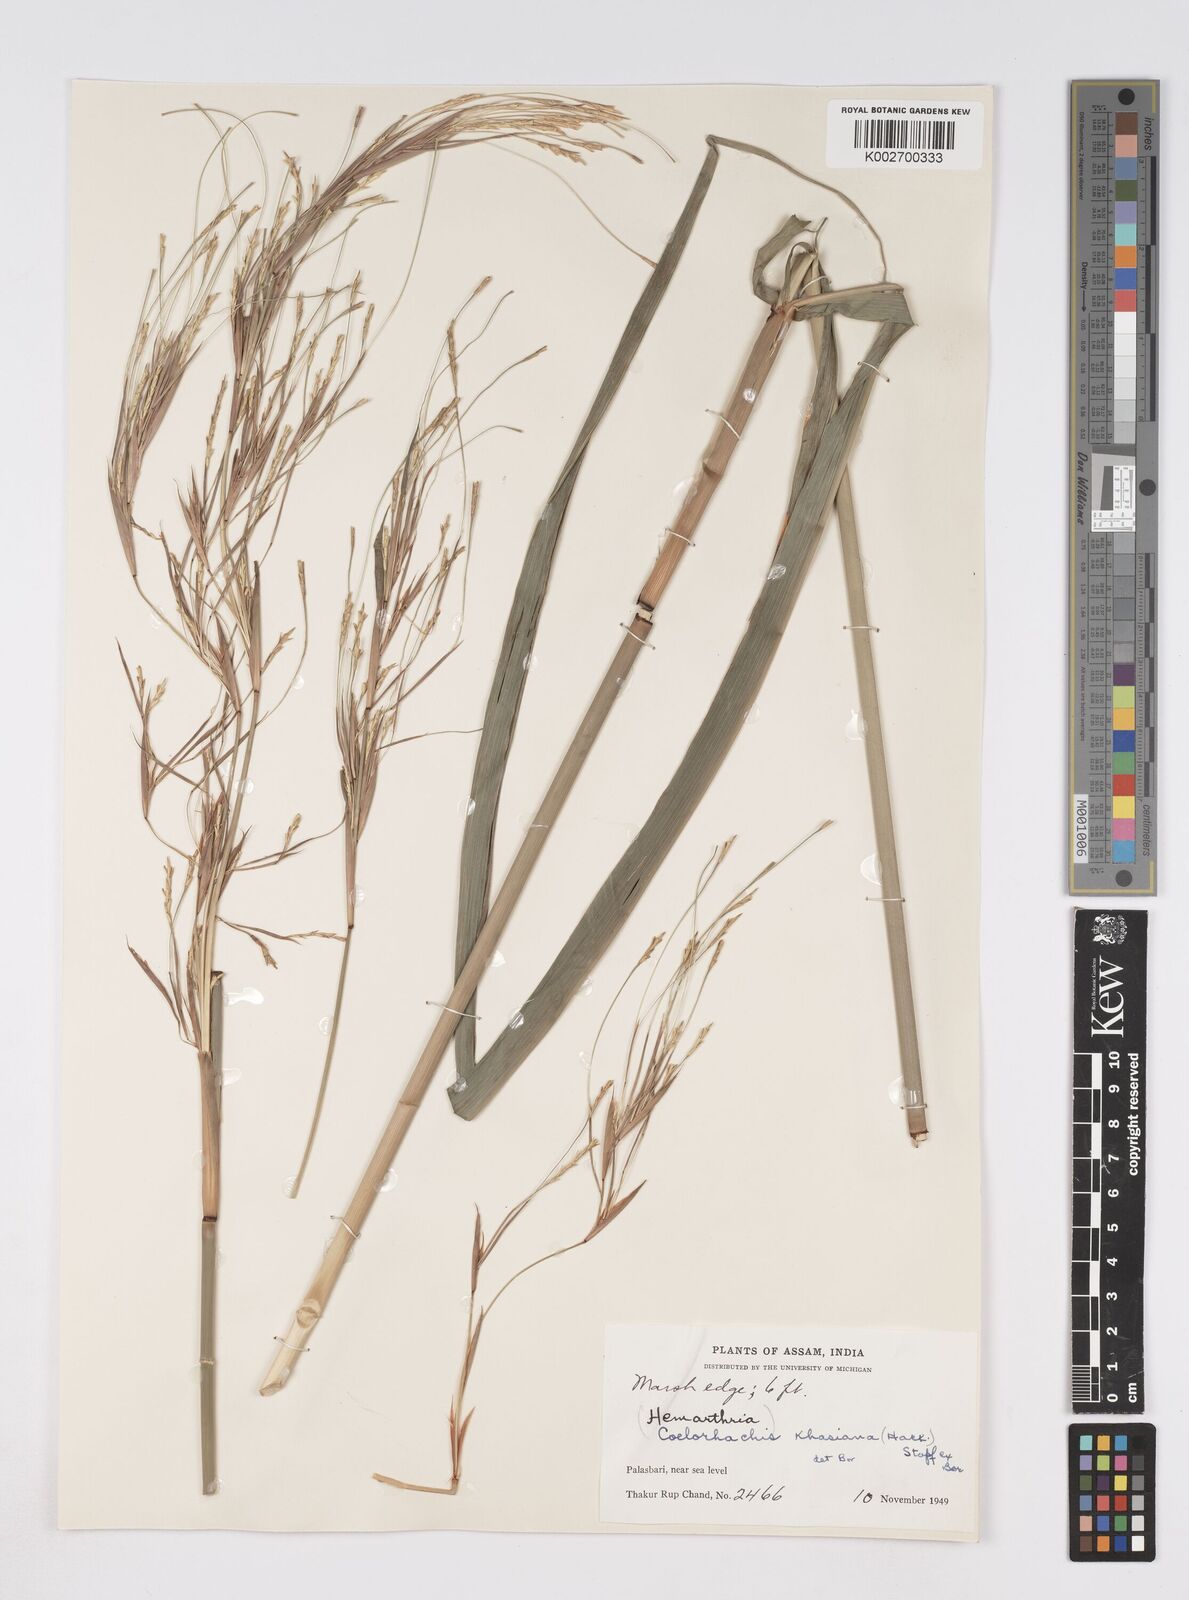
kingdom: Plantae
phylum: Tracheophyta
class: Liliopsida
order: Poales
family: Poaceae
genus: Rottboellia
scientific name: Rottboellia striata
